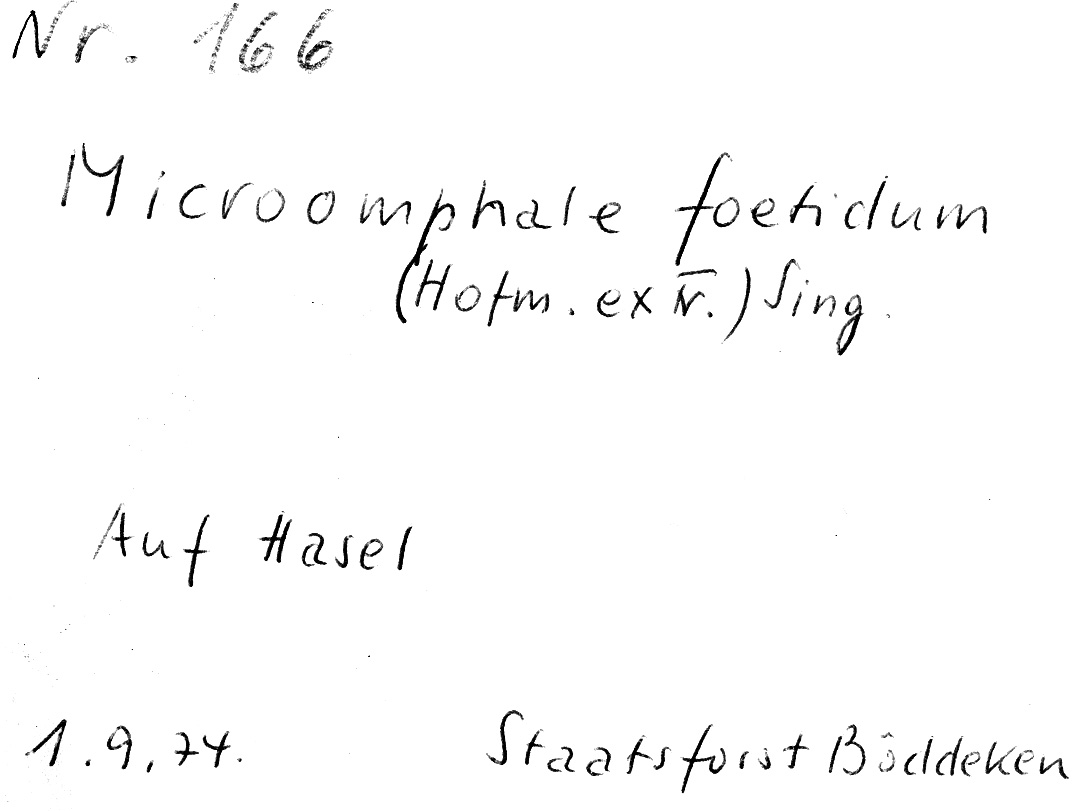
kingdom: Fungi
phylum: Basidiomycota
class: Agaricomycetes
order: Agaricales
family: Omphalotaceae
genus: Gymnopus
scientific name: Gymnopus foetidus
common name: Foetid parachute
